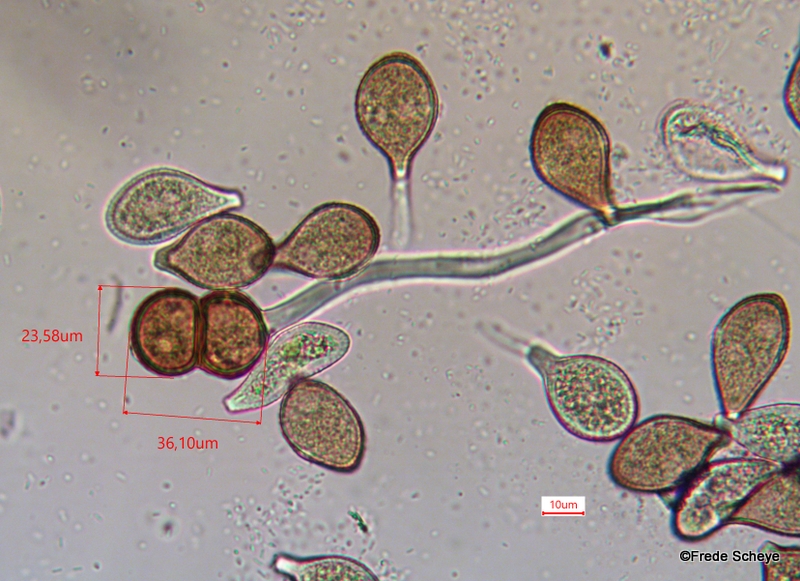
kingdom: Fungi
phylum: Basidiomycota
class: Pucciniomycetes
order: Pucciniales
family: Pucciniaceae
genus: Cumminsiella
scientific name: Cumminsiella mirabilissima
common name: mahonierust
